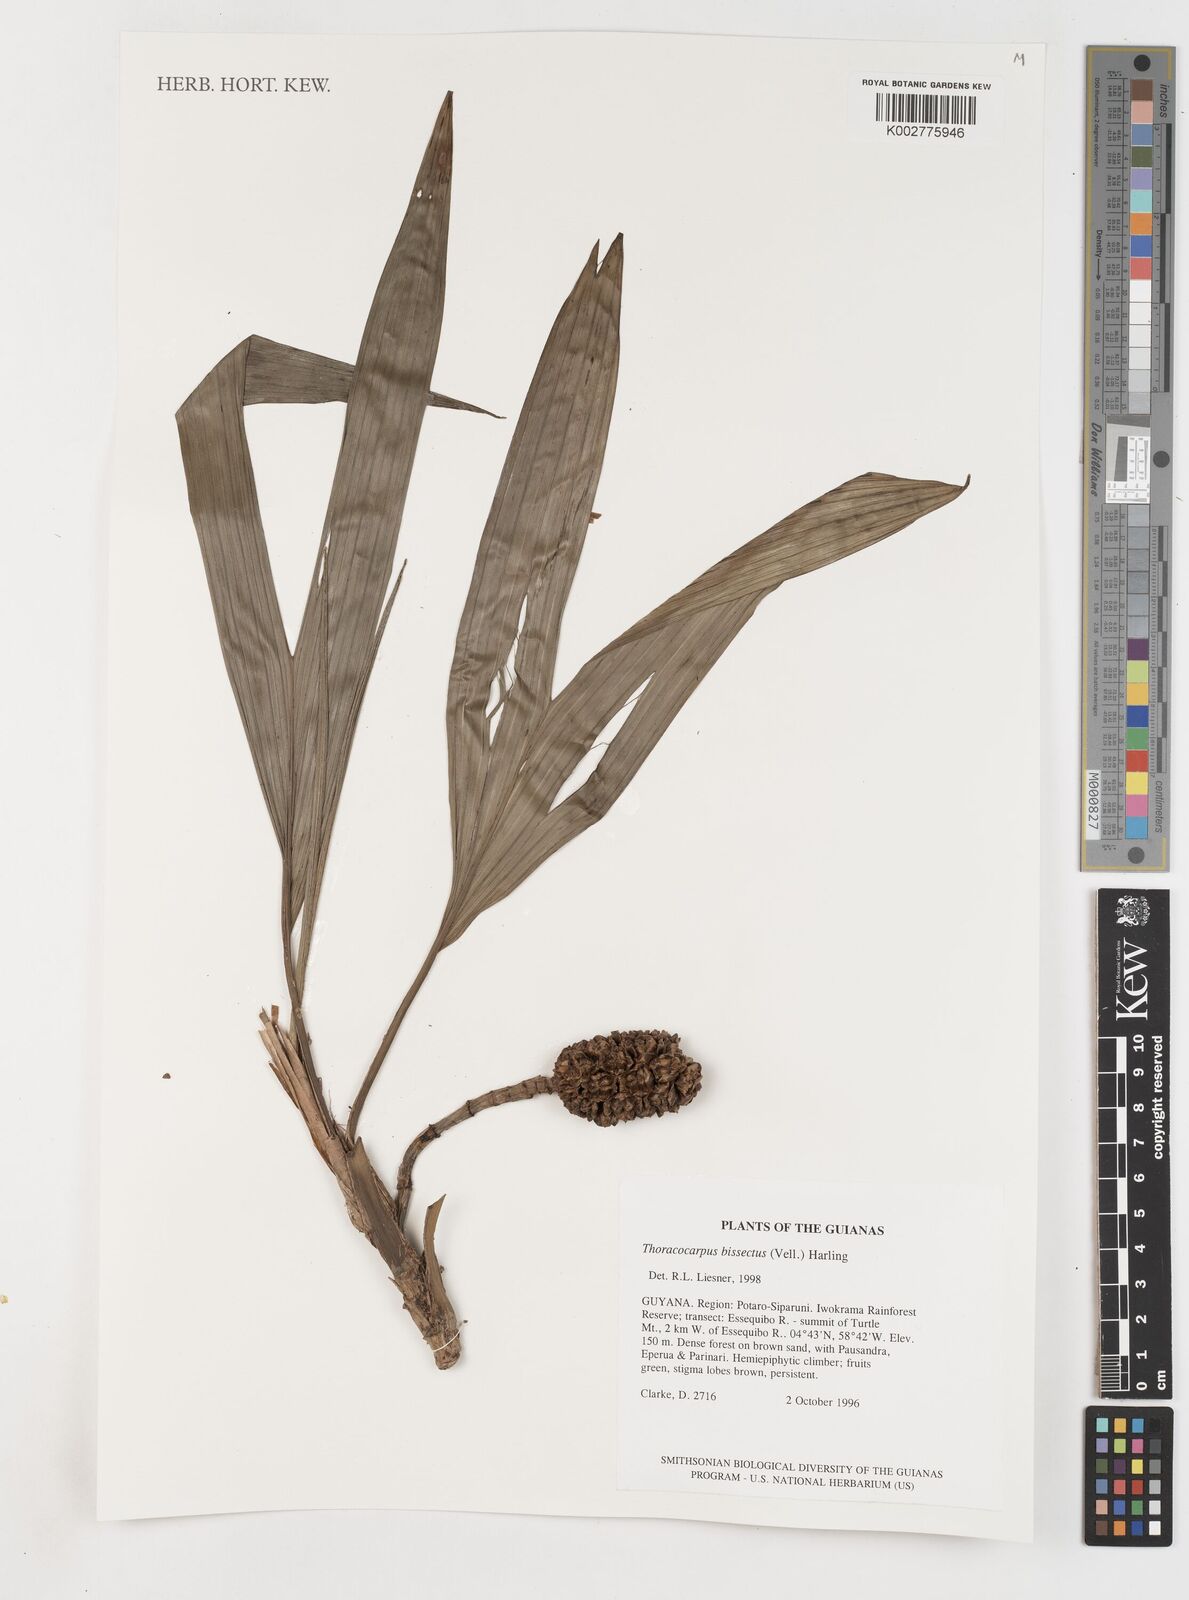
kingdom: Plantae
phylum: Tracheophyta
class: Liliopsida
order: Pandanales
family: Cyclanthaceae
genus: Thoracocarpus
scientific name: Thoracocarpus bissectus
